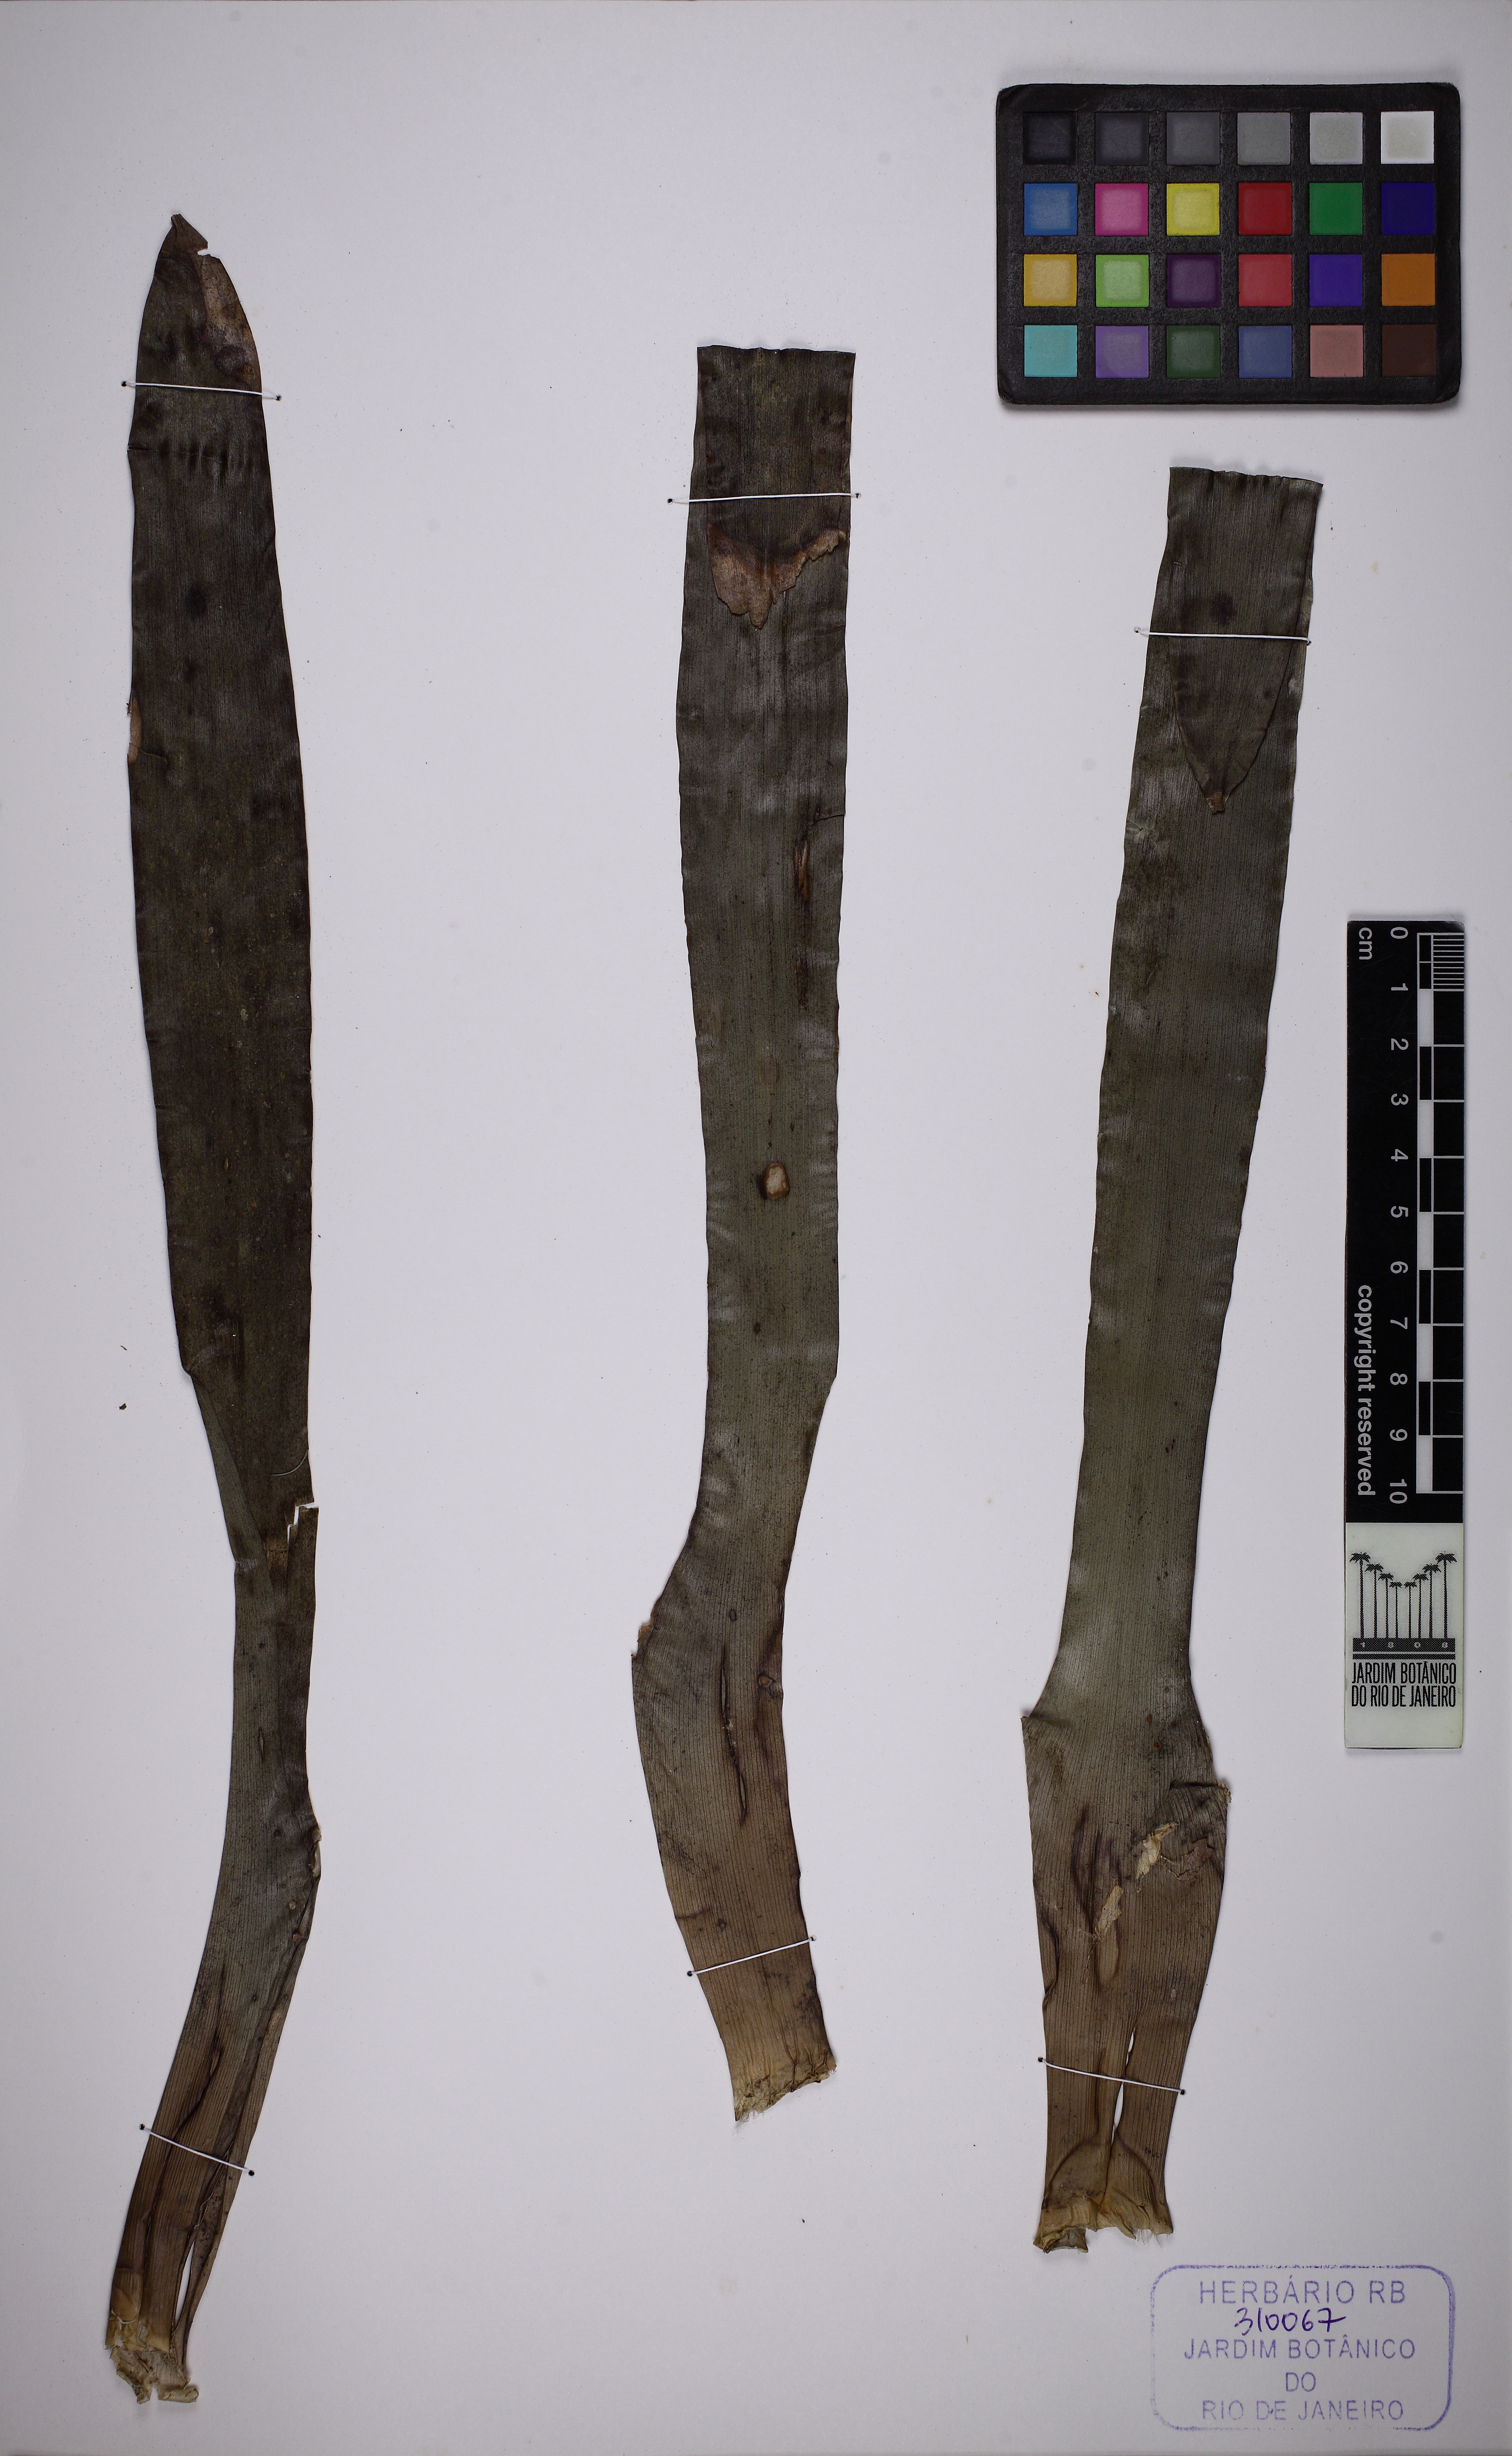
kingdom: Plantae
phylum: Tracheophyta
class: Liliopsida
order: Poales
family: Bromeliaceae
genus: Vriesea
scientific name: Vriesea inflata
